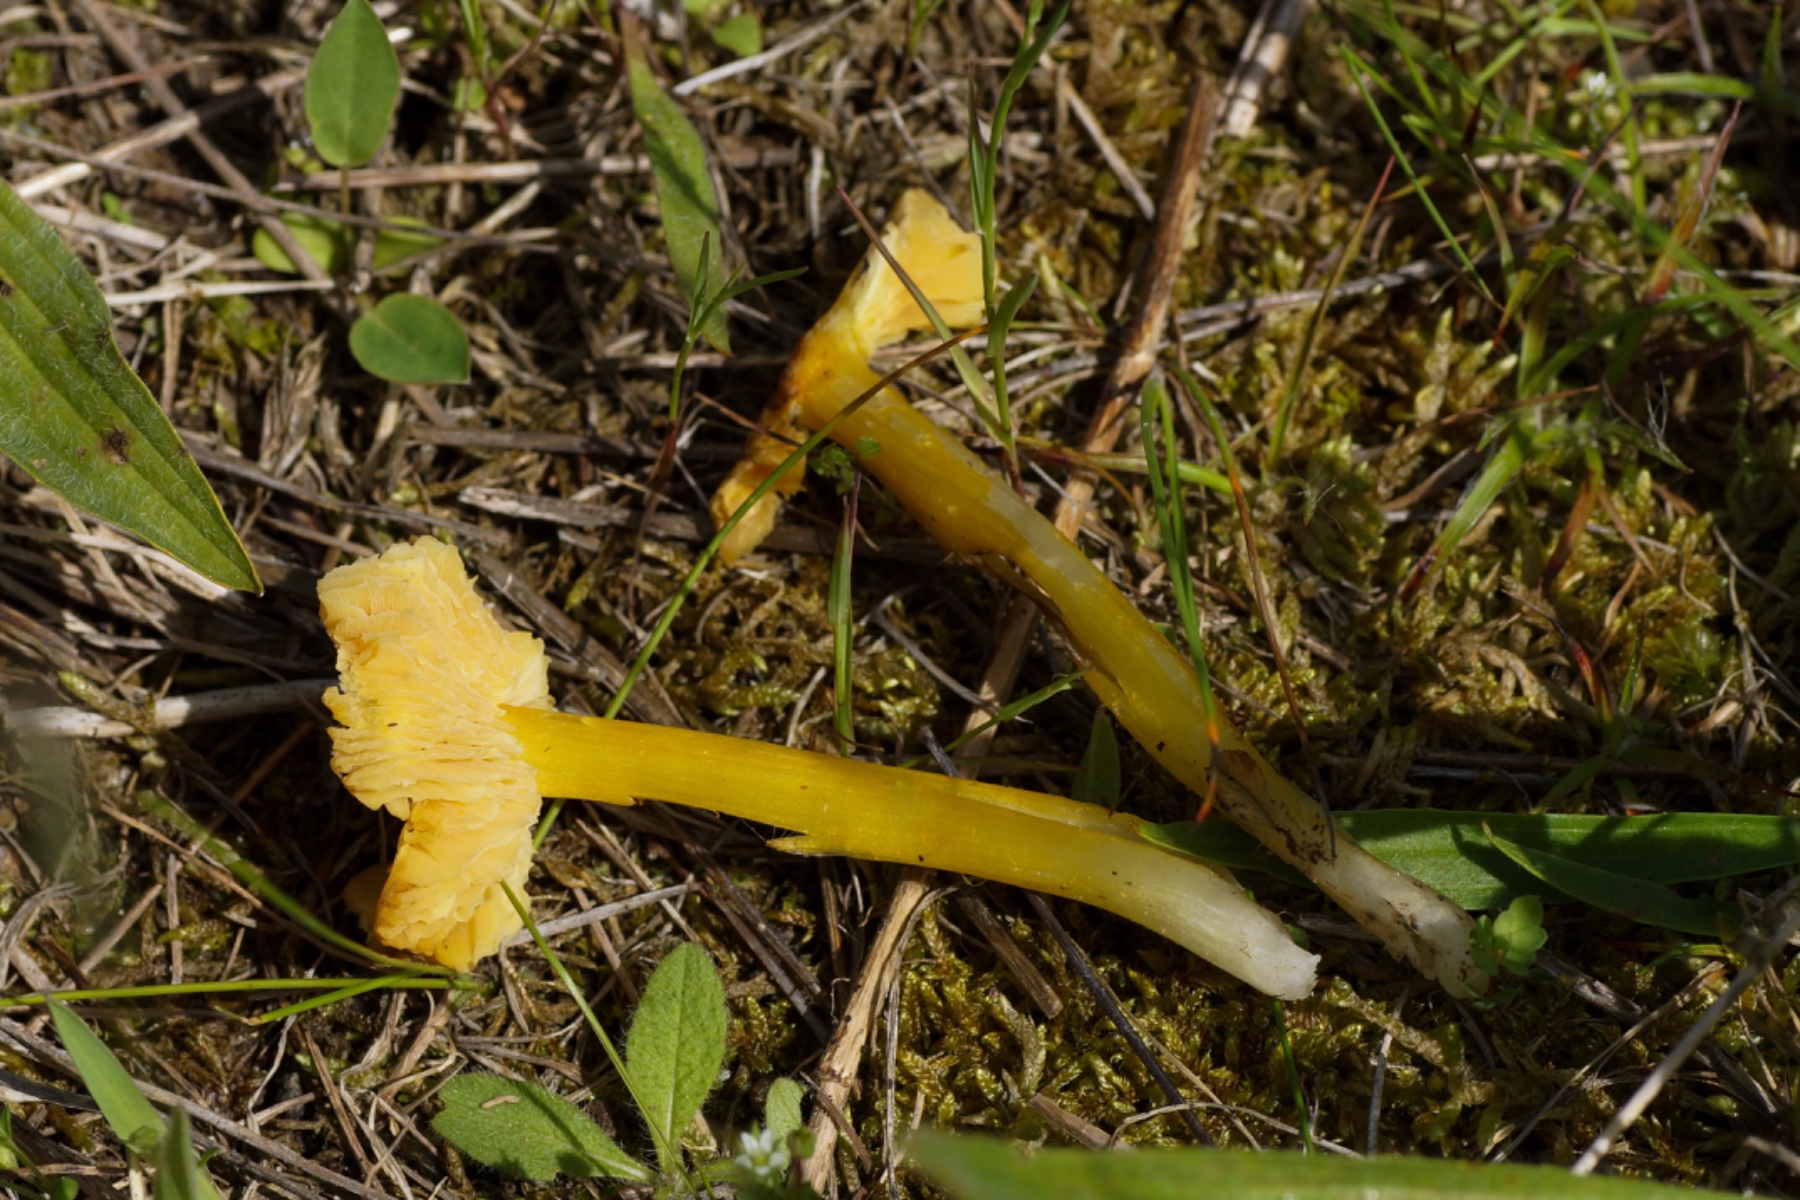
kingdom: Fungi
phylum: Basidiomycota
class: Agaricomycetes
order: Agaricales
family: Hygrophoraceae
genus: Hygrocybe
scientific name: Hygrocybe conica
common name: kegle-vokshat
